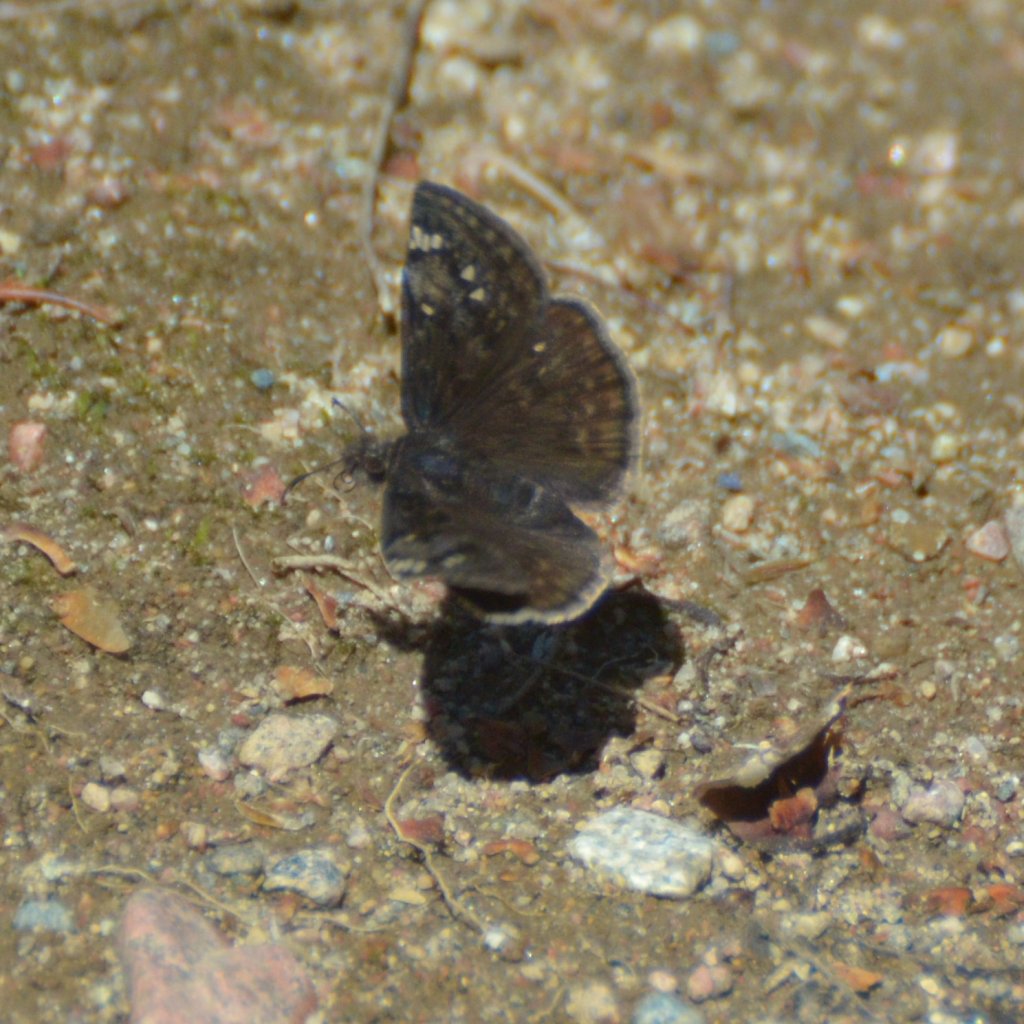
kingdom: Animalia
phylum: Arthropoda
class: Insecta
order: Lepidoptera
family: Hesperiidae
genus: Gesta
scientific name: Gesta
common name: Juvenal's Duskywing
